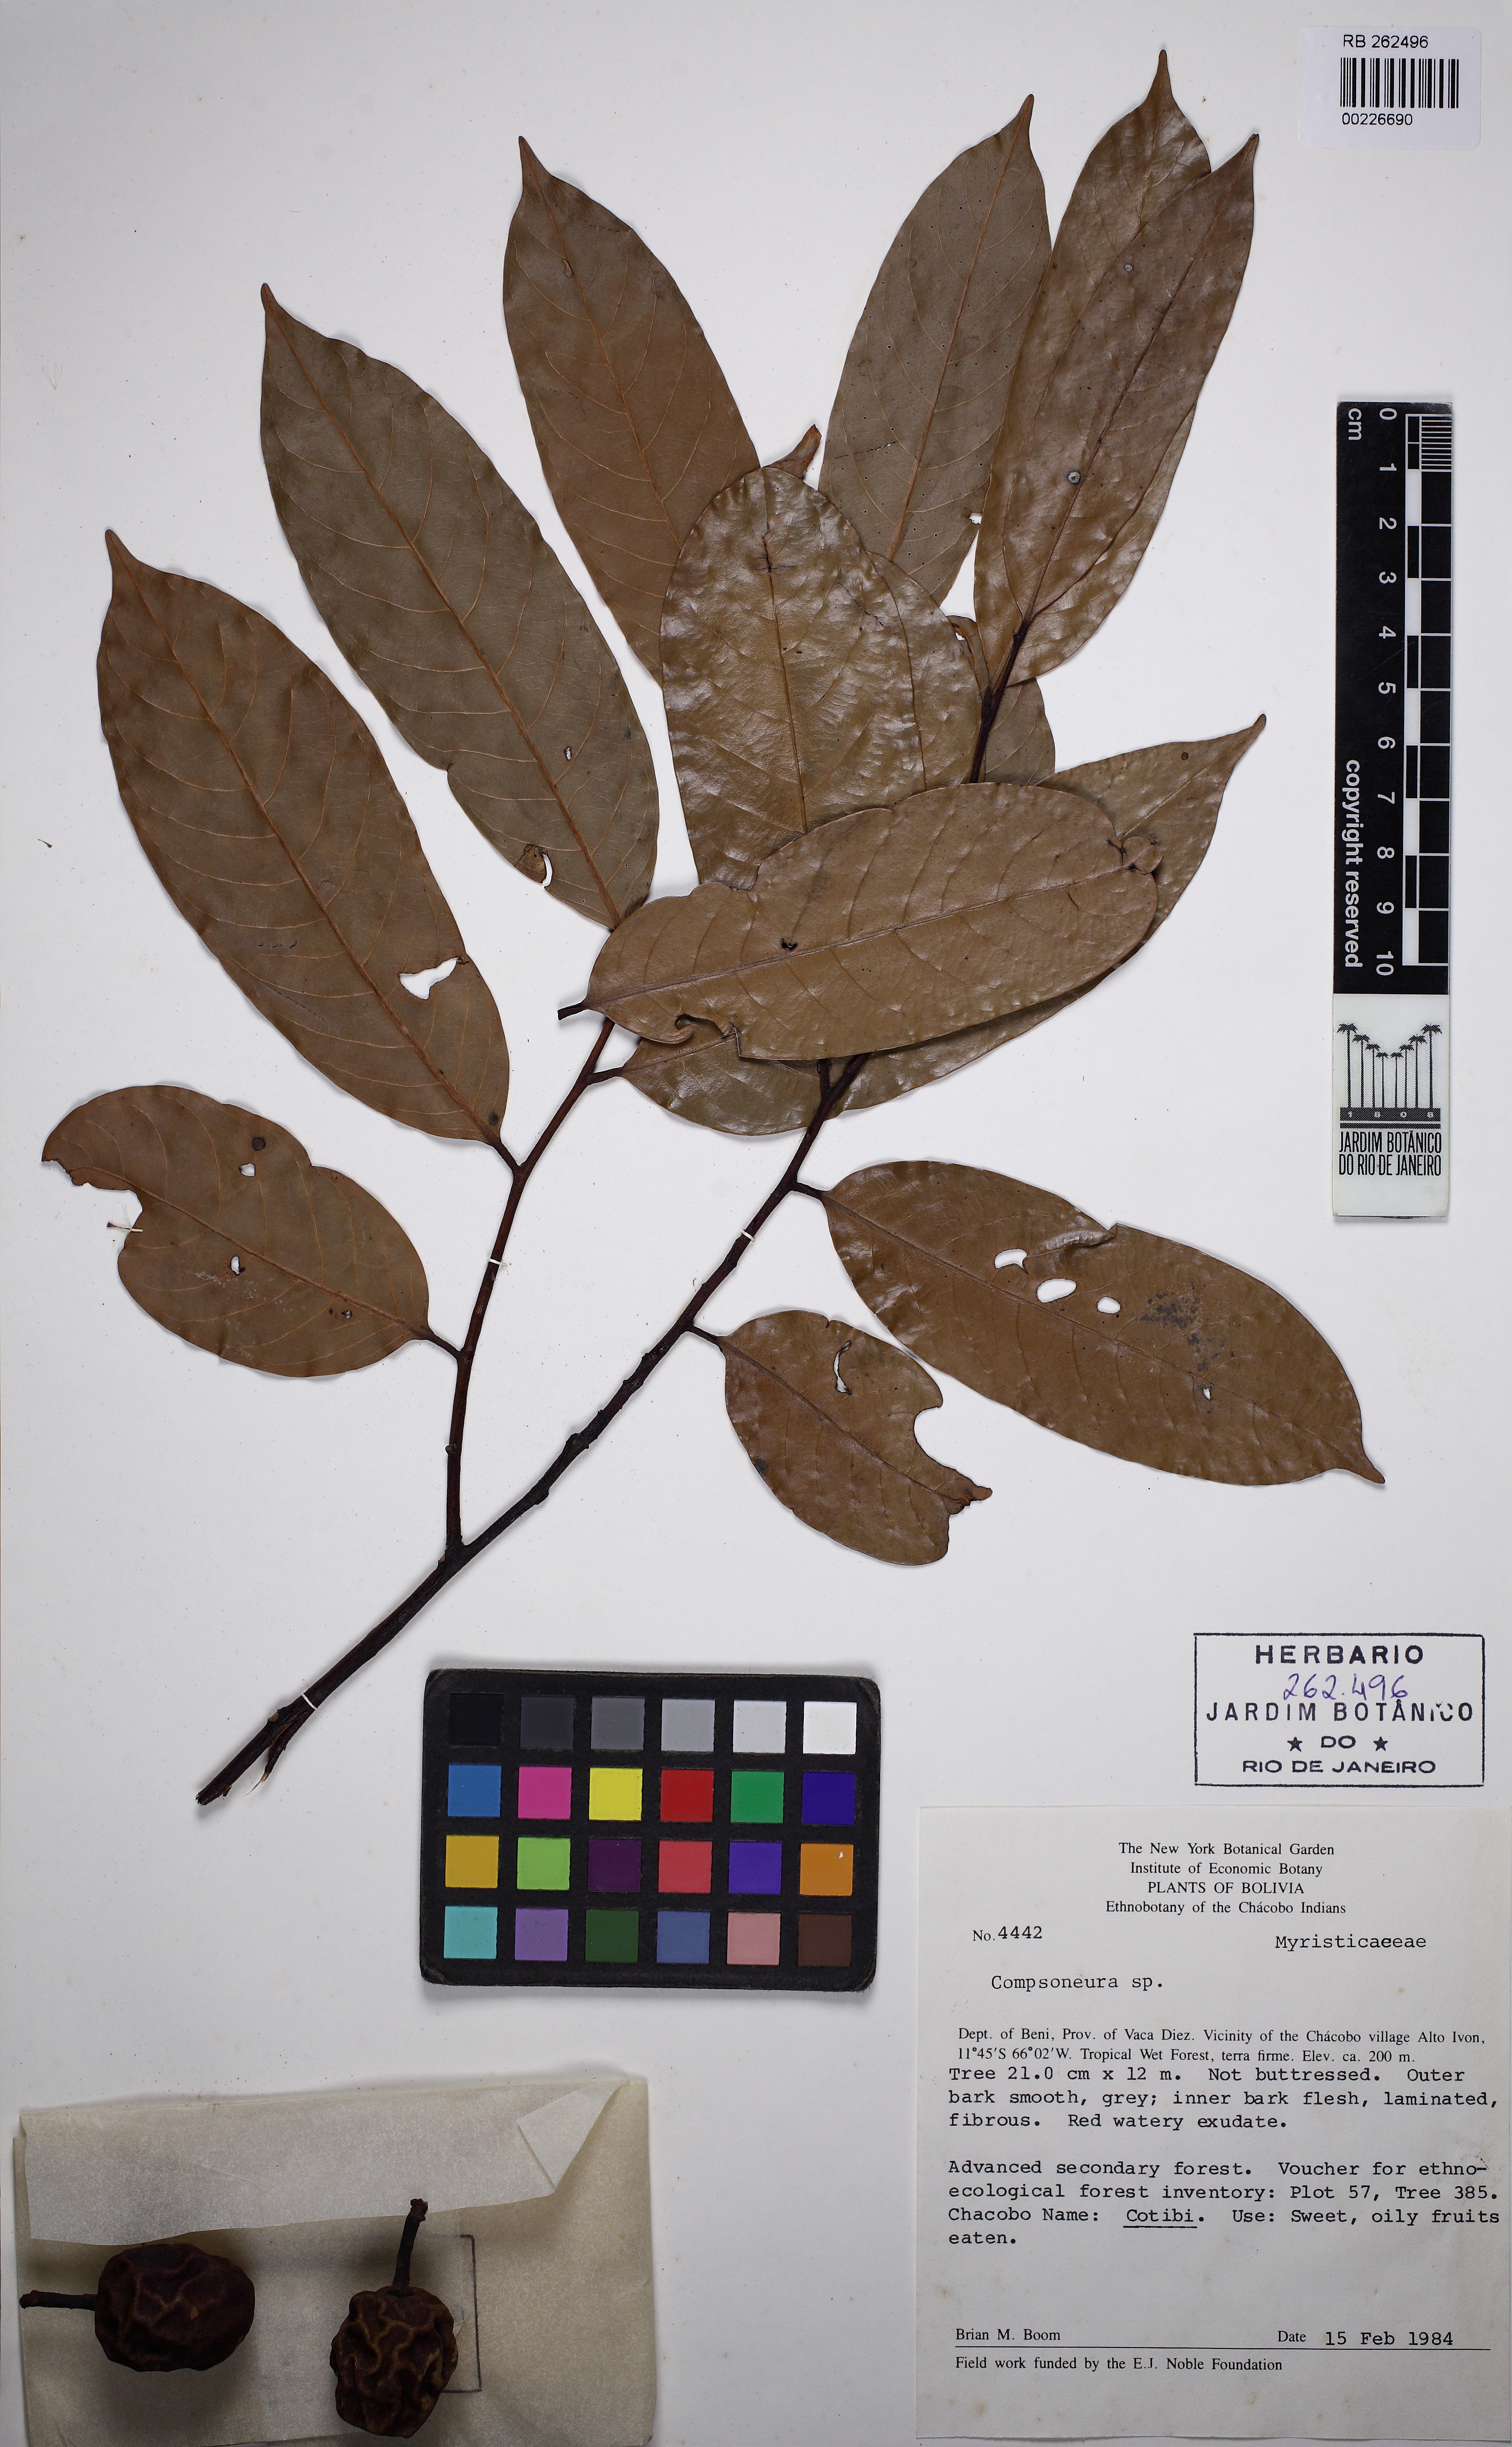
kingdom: Plantae
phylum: Tracheophyta
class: Magnoliopsida
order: Magnoliales
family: Myristicaceae
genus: Compsoneura
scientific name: Compsoneura
